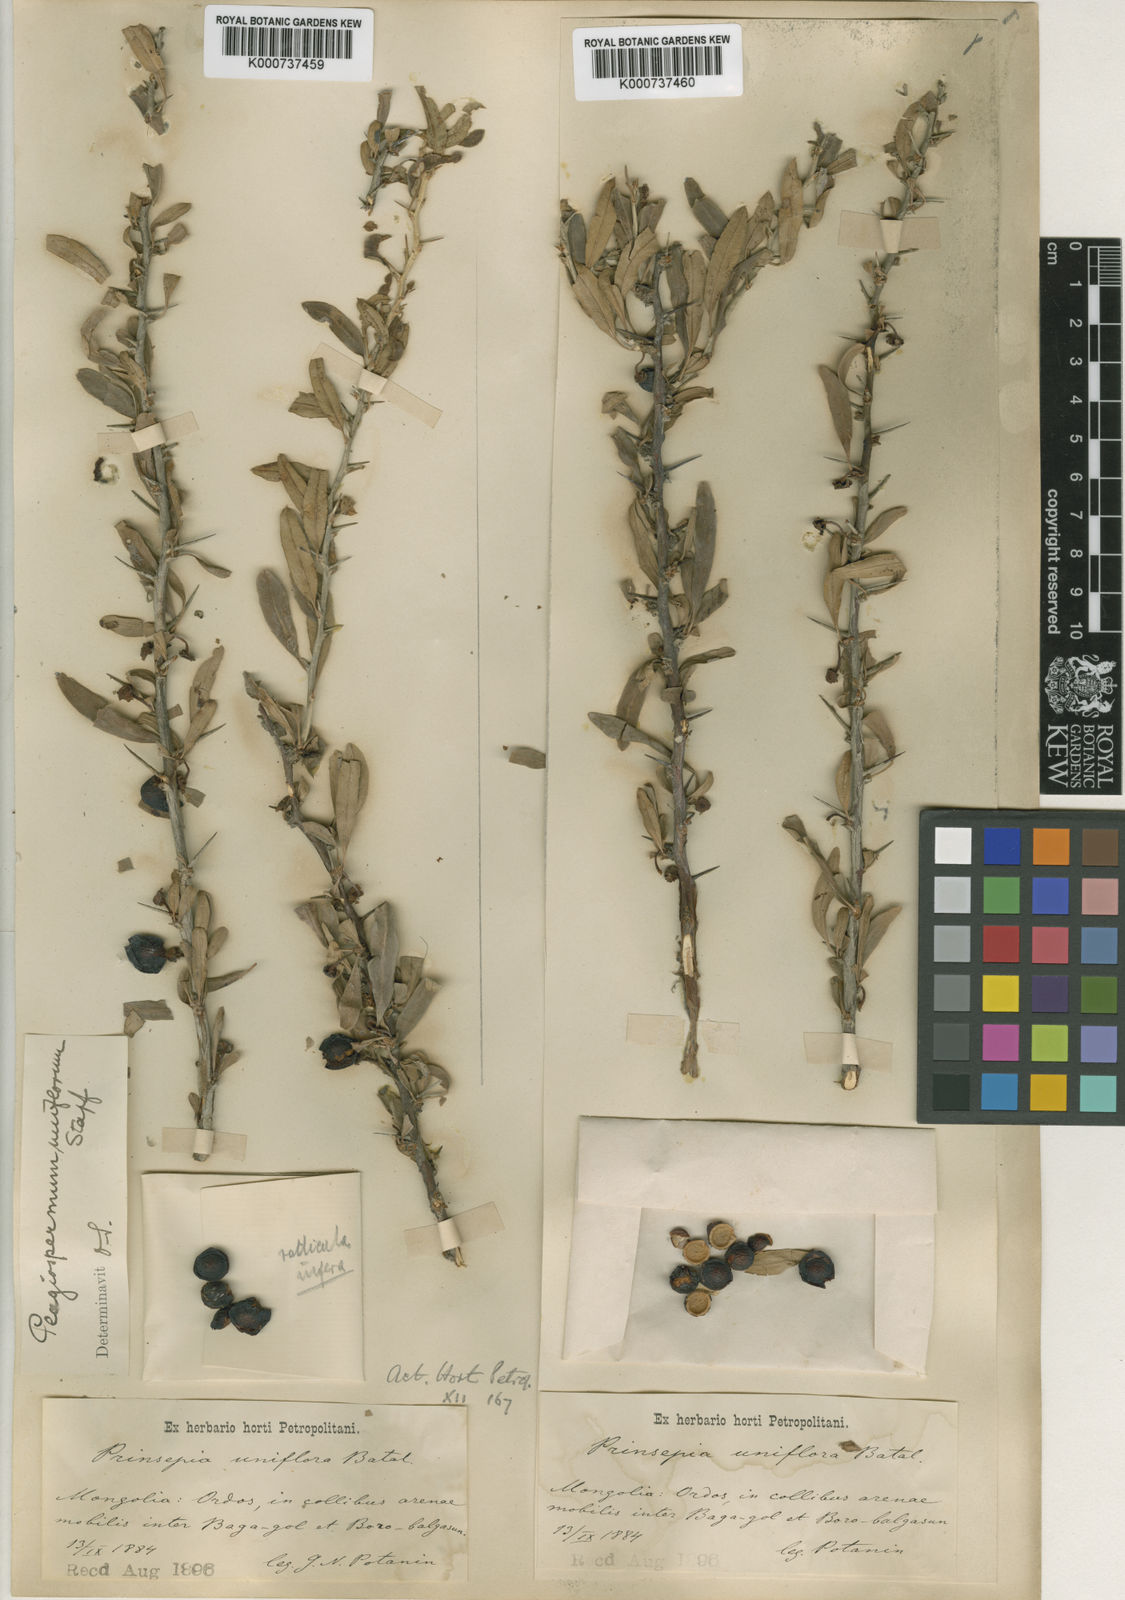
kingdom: Plantae
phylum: Tracheophyta
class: Magnoliopsida
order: Rosales
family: Rosaceae
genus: Prinsepia
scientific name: Prinsepia uniflora
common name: Prinsepia
